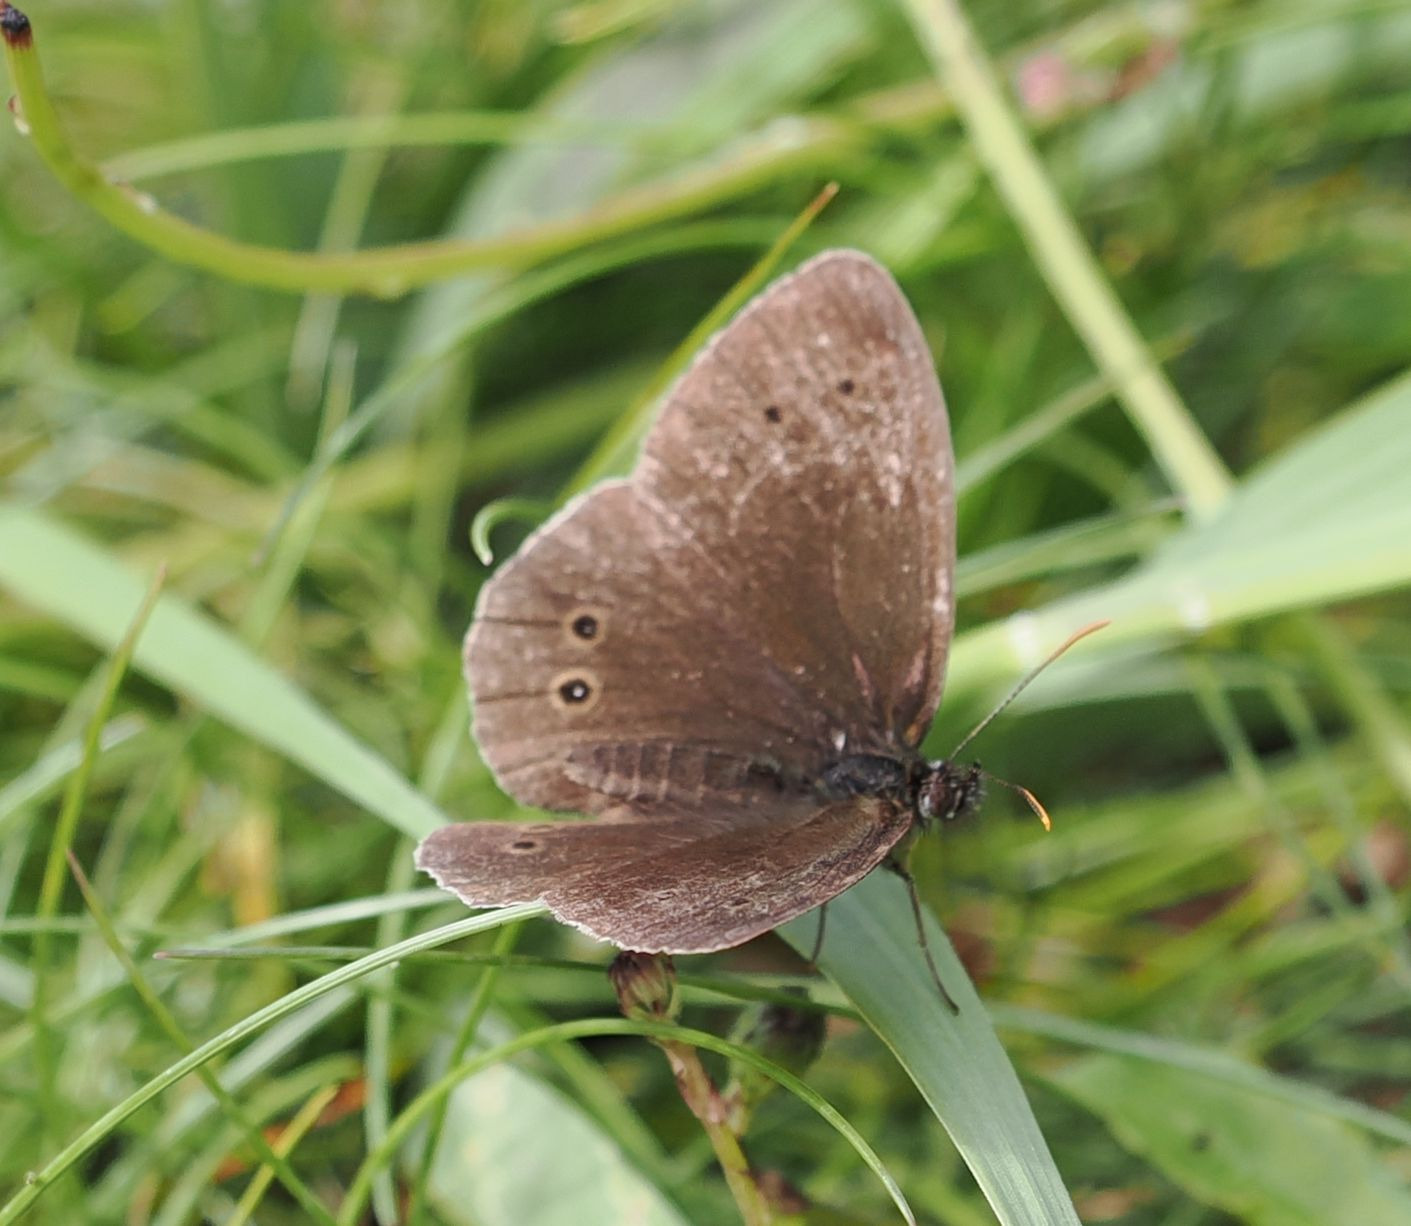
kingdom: Animalia
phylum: Arthropoda
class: Insecta
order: Lepidoptera
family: Nymphalidae
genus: Aphantopus
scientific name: Aphantopus hyperantus
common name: Engrandøje
